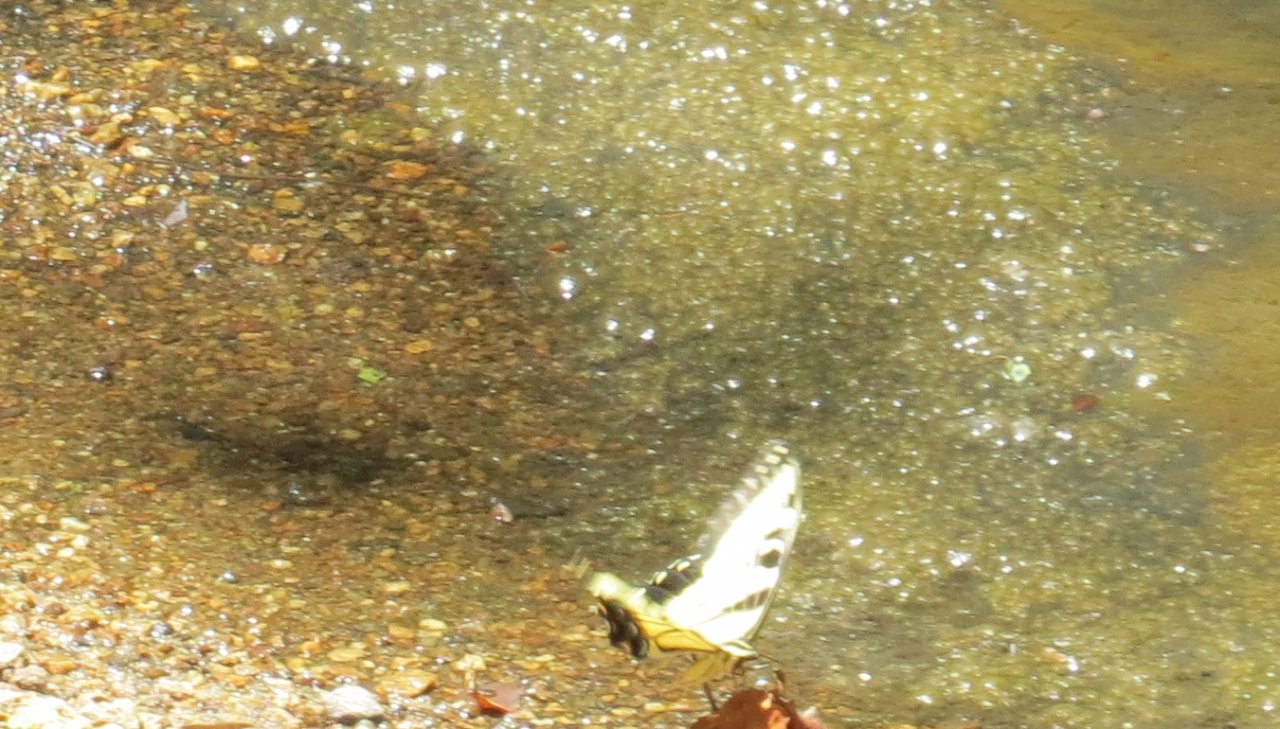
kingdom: Animalia
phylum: Arthropoda
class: Insecta
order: Lepidoptera
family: Papilionidae
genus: Pterourus
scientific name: Pterourus glaucus
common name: Eastern Tiger Swallowtail
